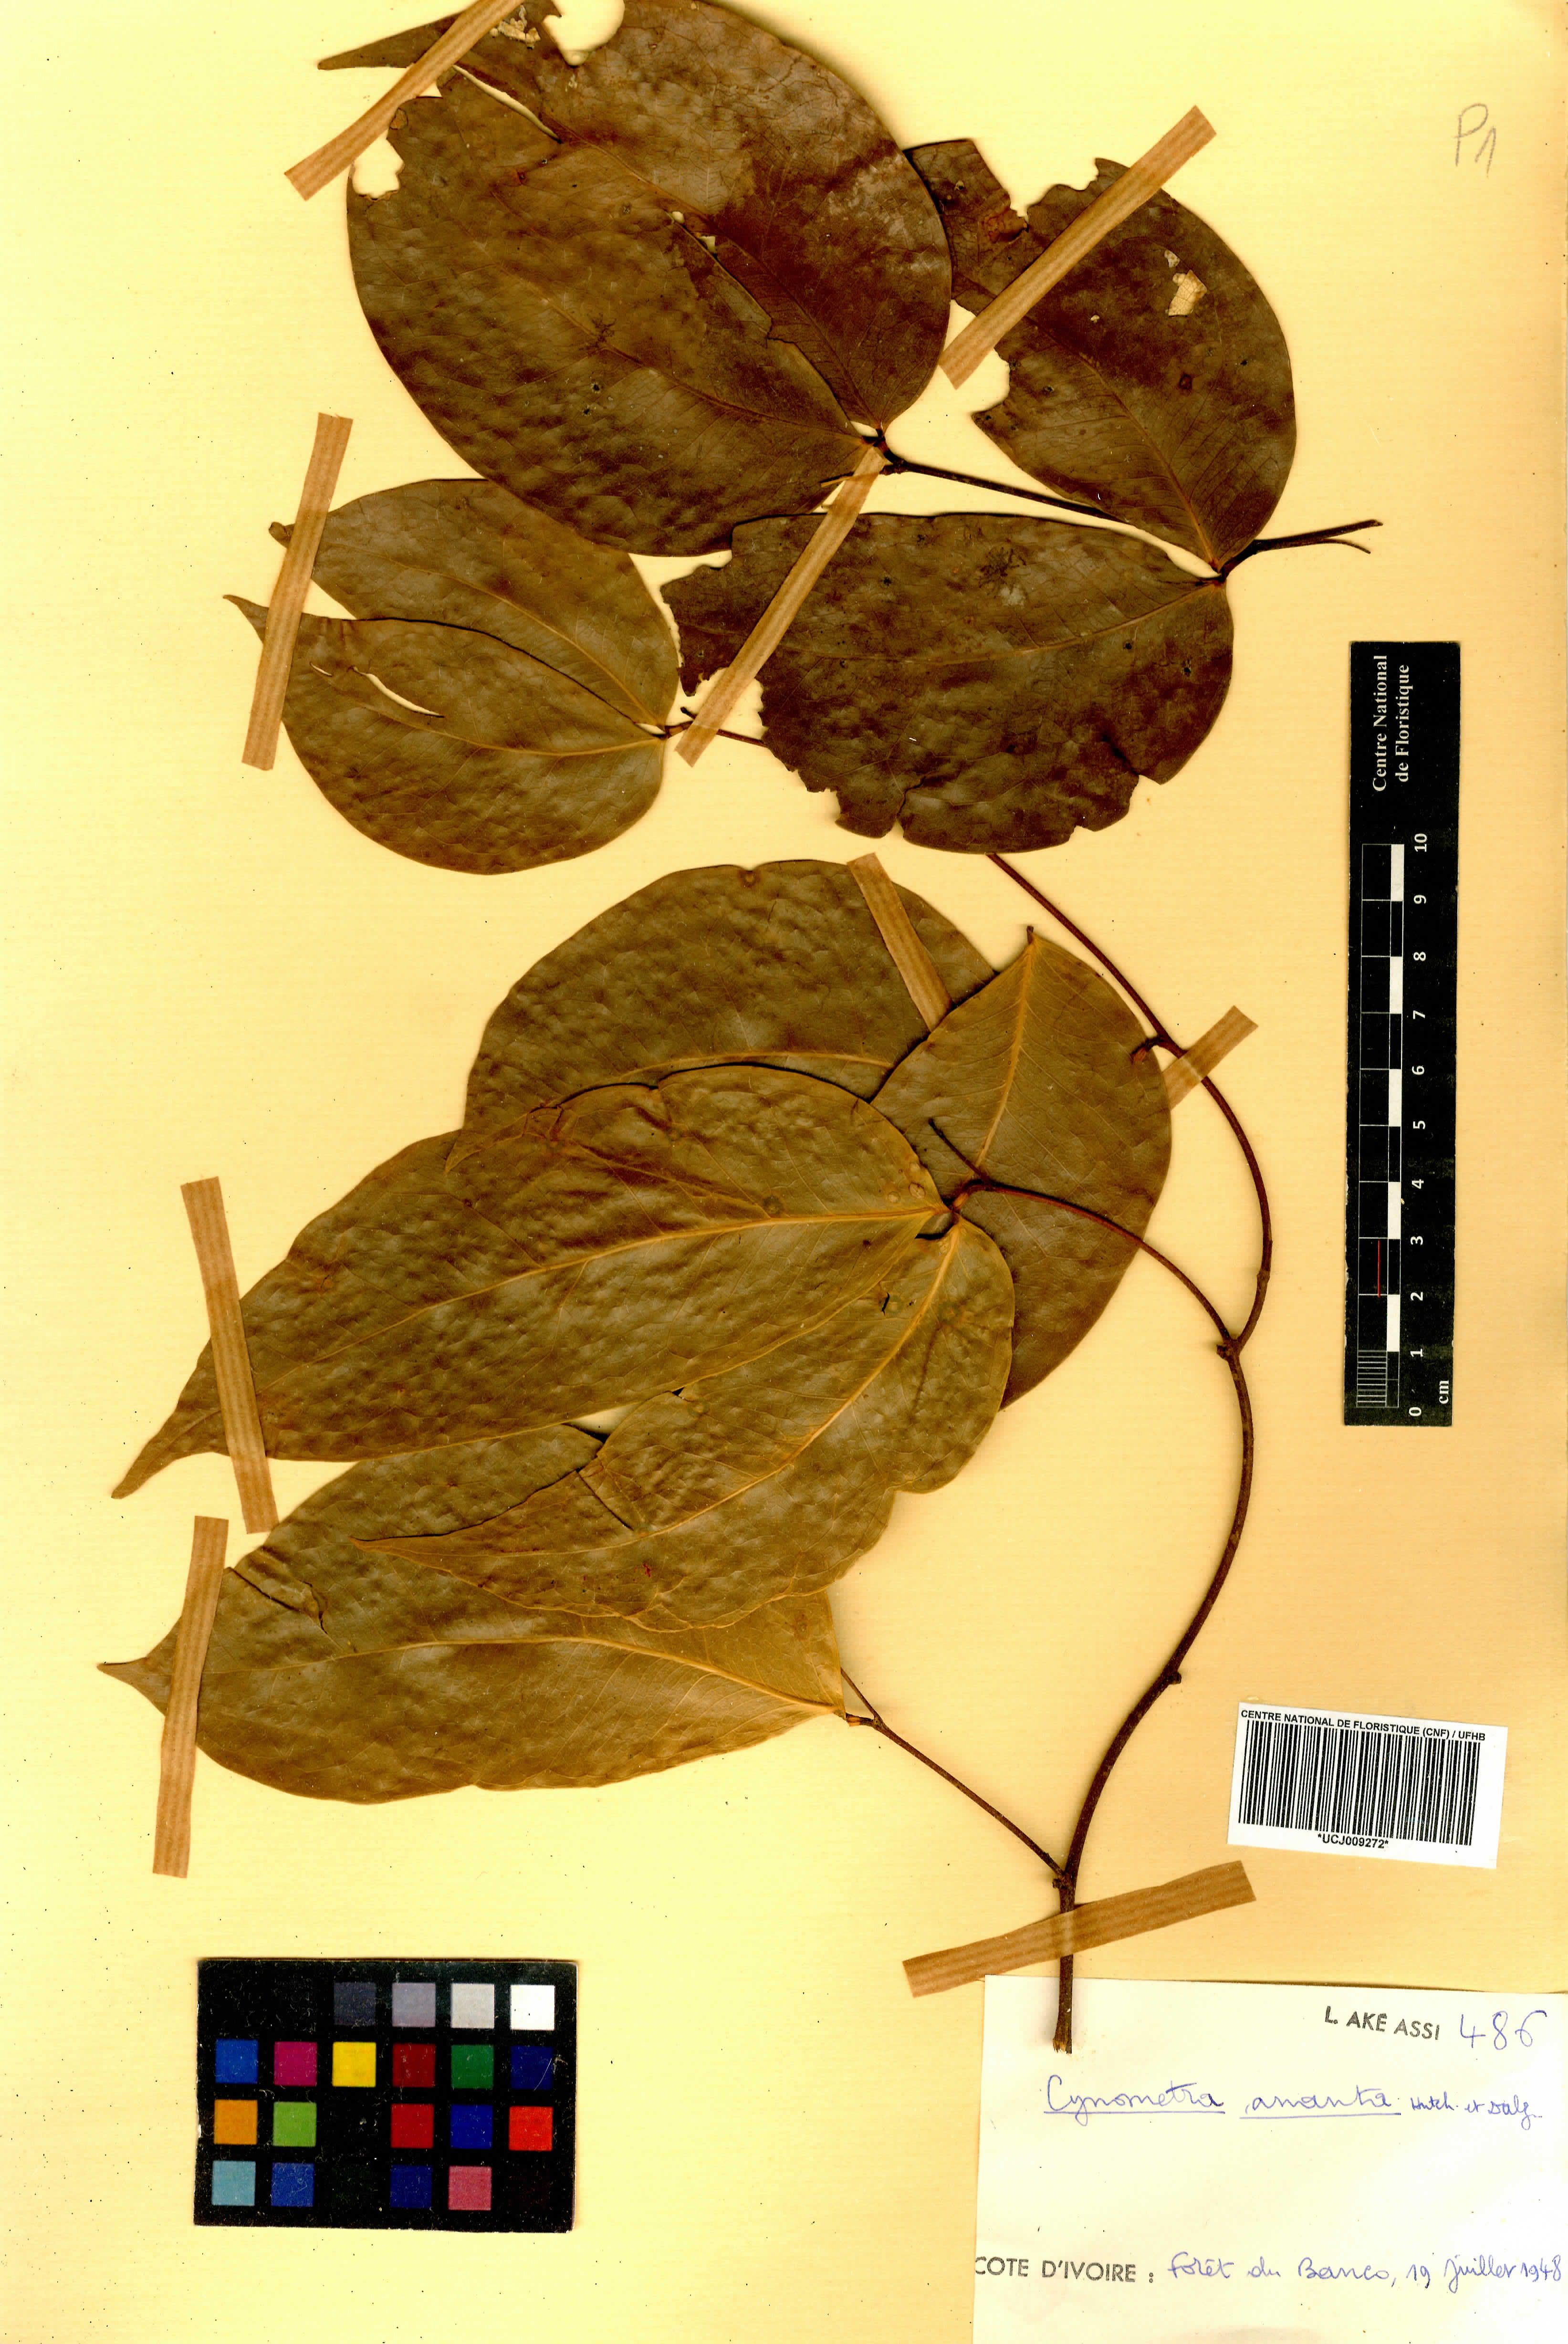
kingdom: Plantae
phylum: Tracheophyta
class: Magnoliopsida
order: Fabales
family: Fabaceae
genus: Cynometra
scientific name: Cynometra ananta
